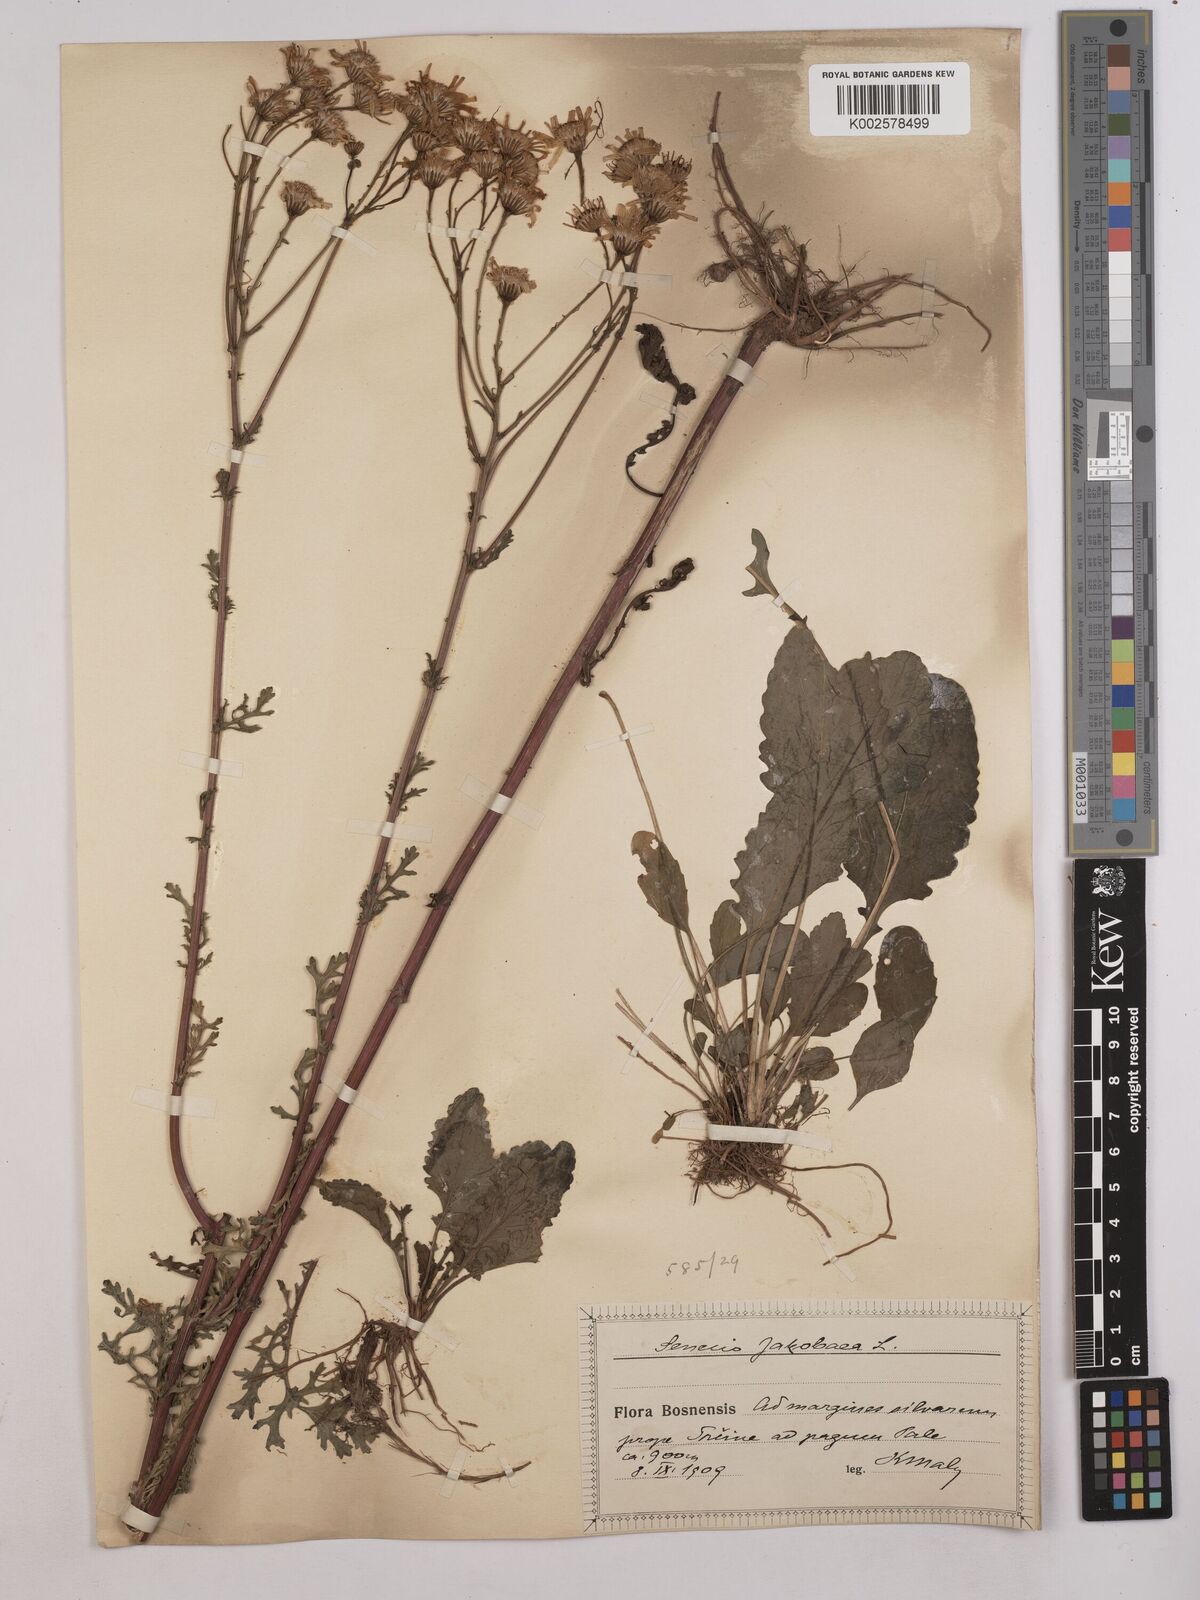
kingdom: Plantae
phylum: Tracheophyta
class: Magnoliopsida
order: Asterales
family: Asteraceae
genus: Jacobaea
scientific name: Jacobaea vulgaris
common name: Stinking willie
